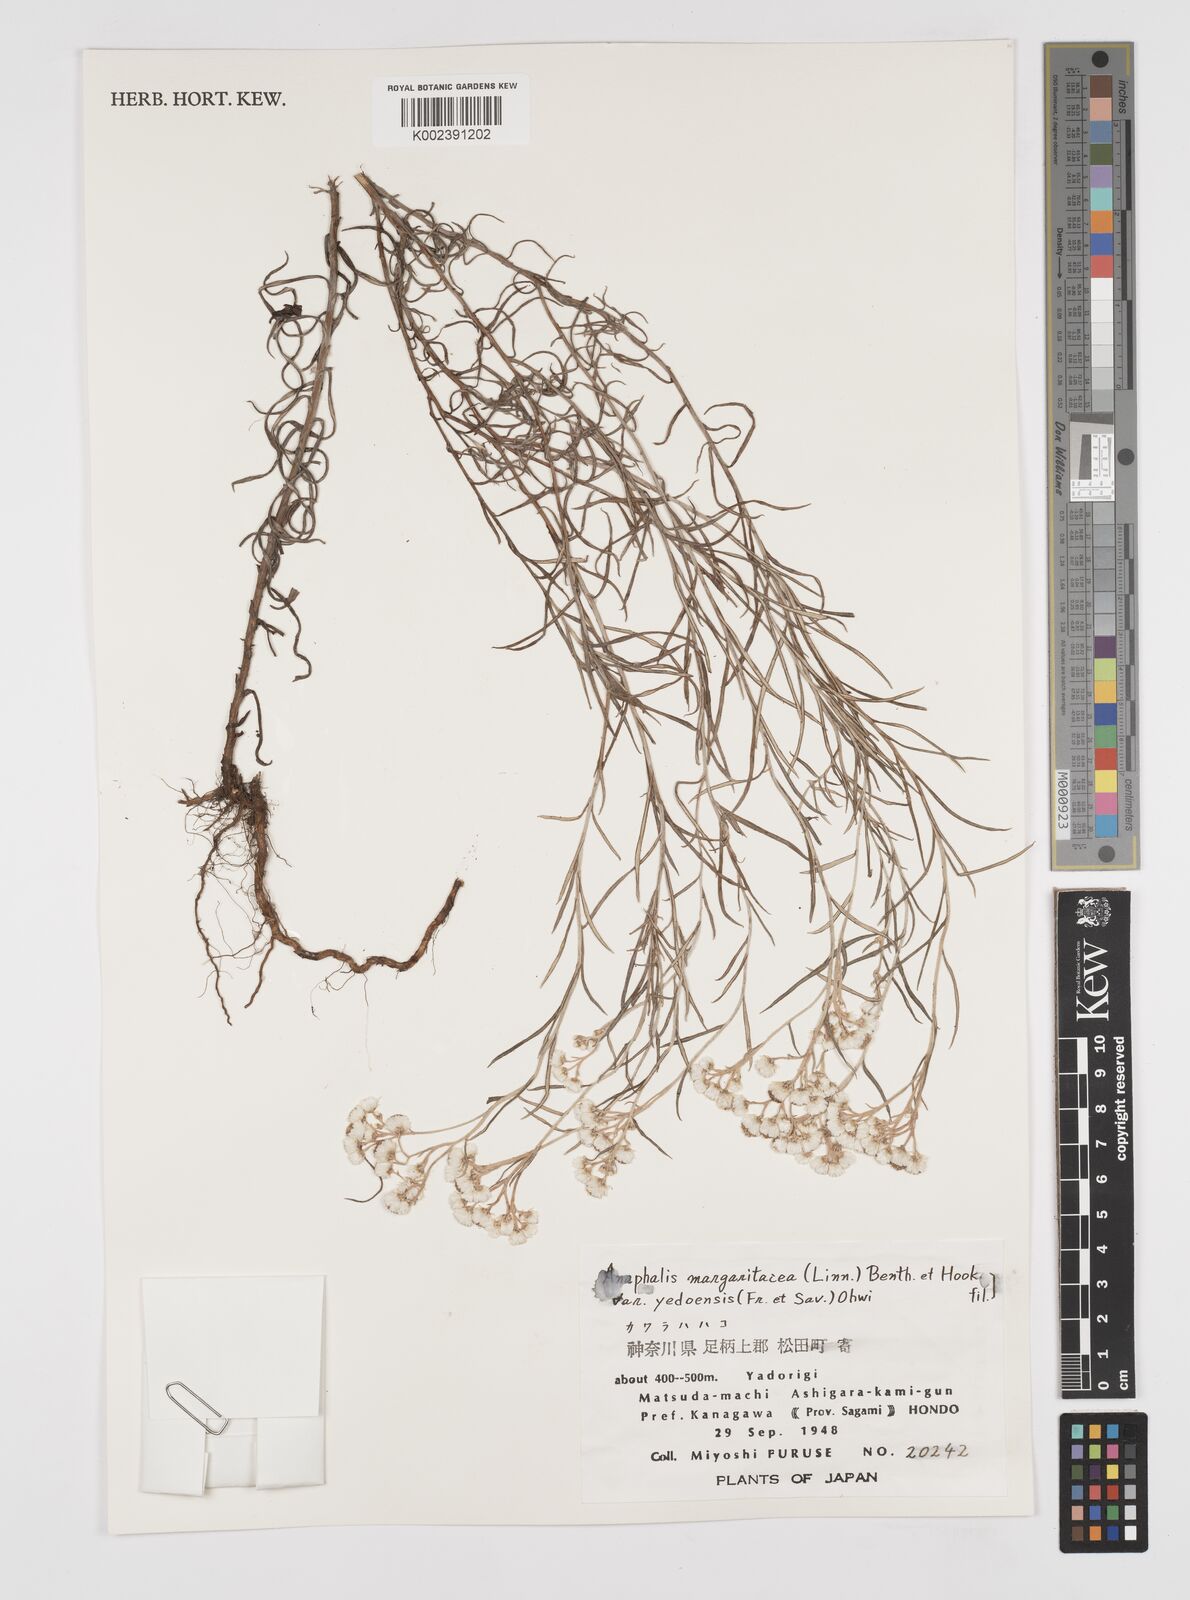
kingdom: Plantae
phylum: Tracheophyta
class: Magnoliopsida
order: Asterales
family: Asteraceae
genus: Anaphalis
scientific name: Anaphalis margaritacea
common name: Pearly everlasting
